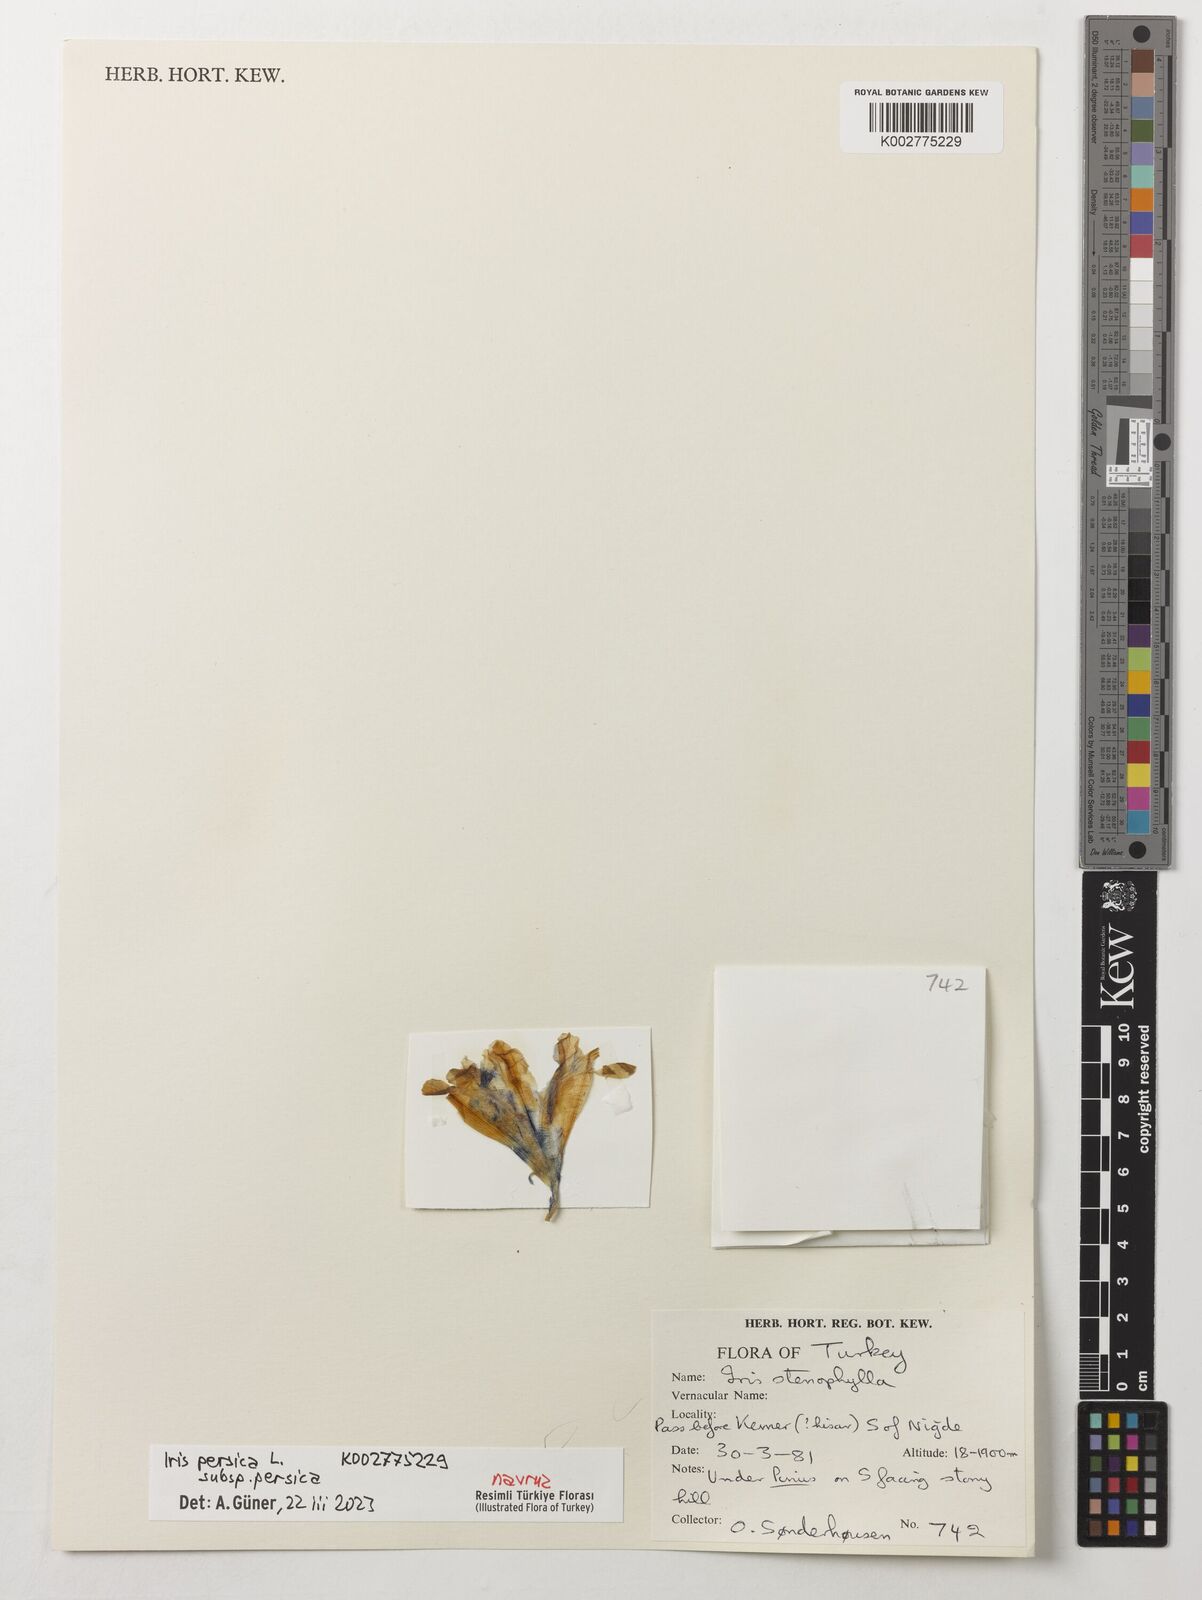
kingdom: Plantae
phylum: Tracheophyta
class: Liliopsida
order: Asparagales
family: Iridaceae
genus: Iris
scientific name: Iris stenophylla
